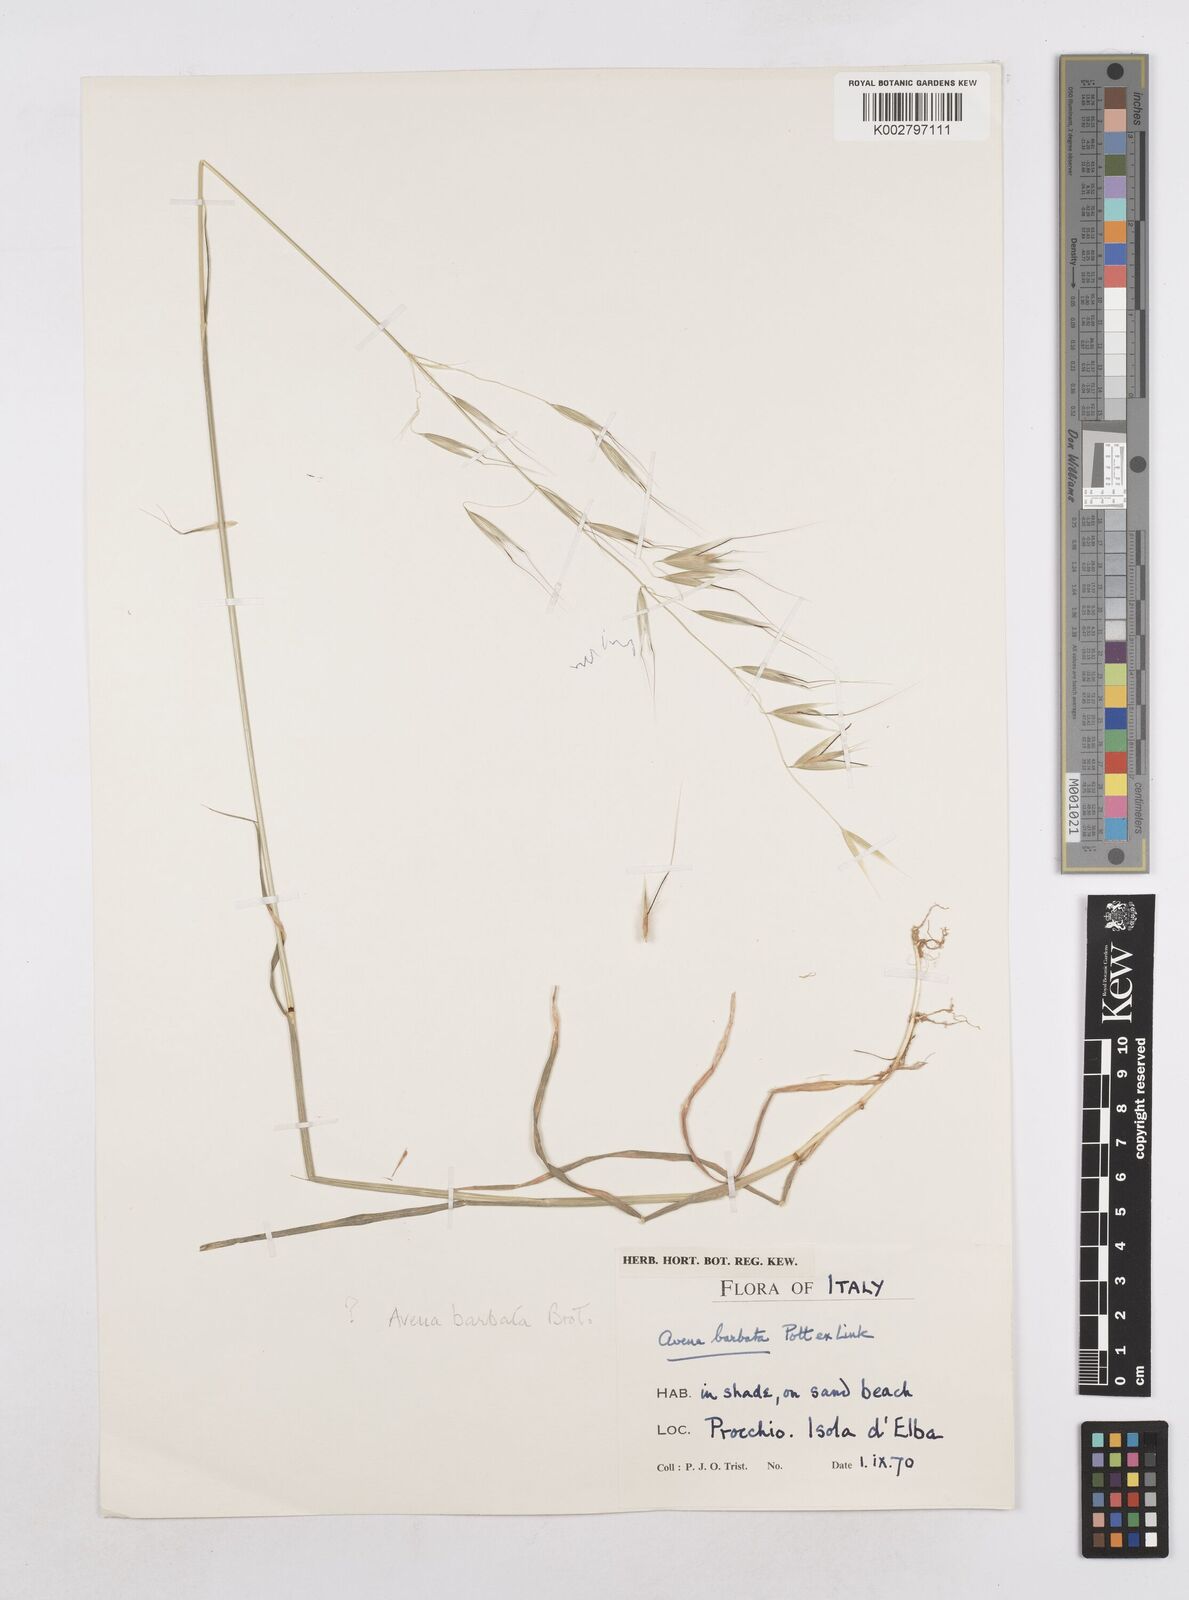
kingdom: Plantae
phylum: Tracheophyta
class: Liliopsida
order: Poales
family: Poaceae
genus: Avena
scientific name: Avena
